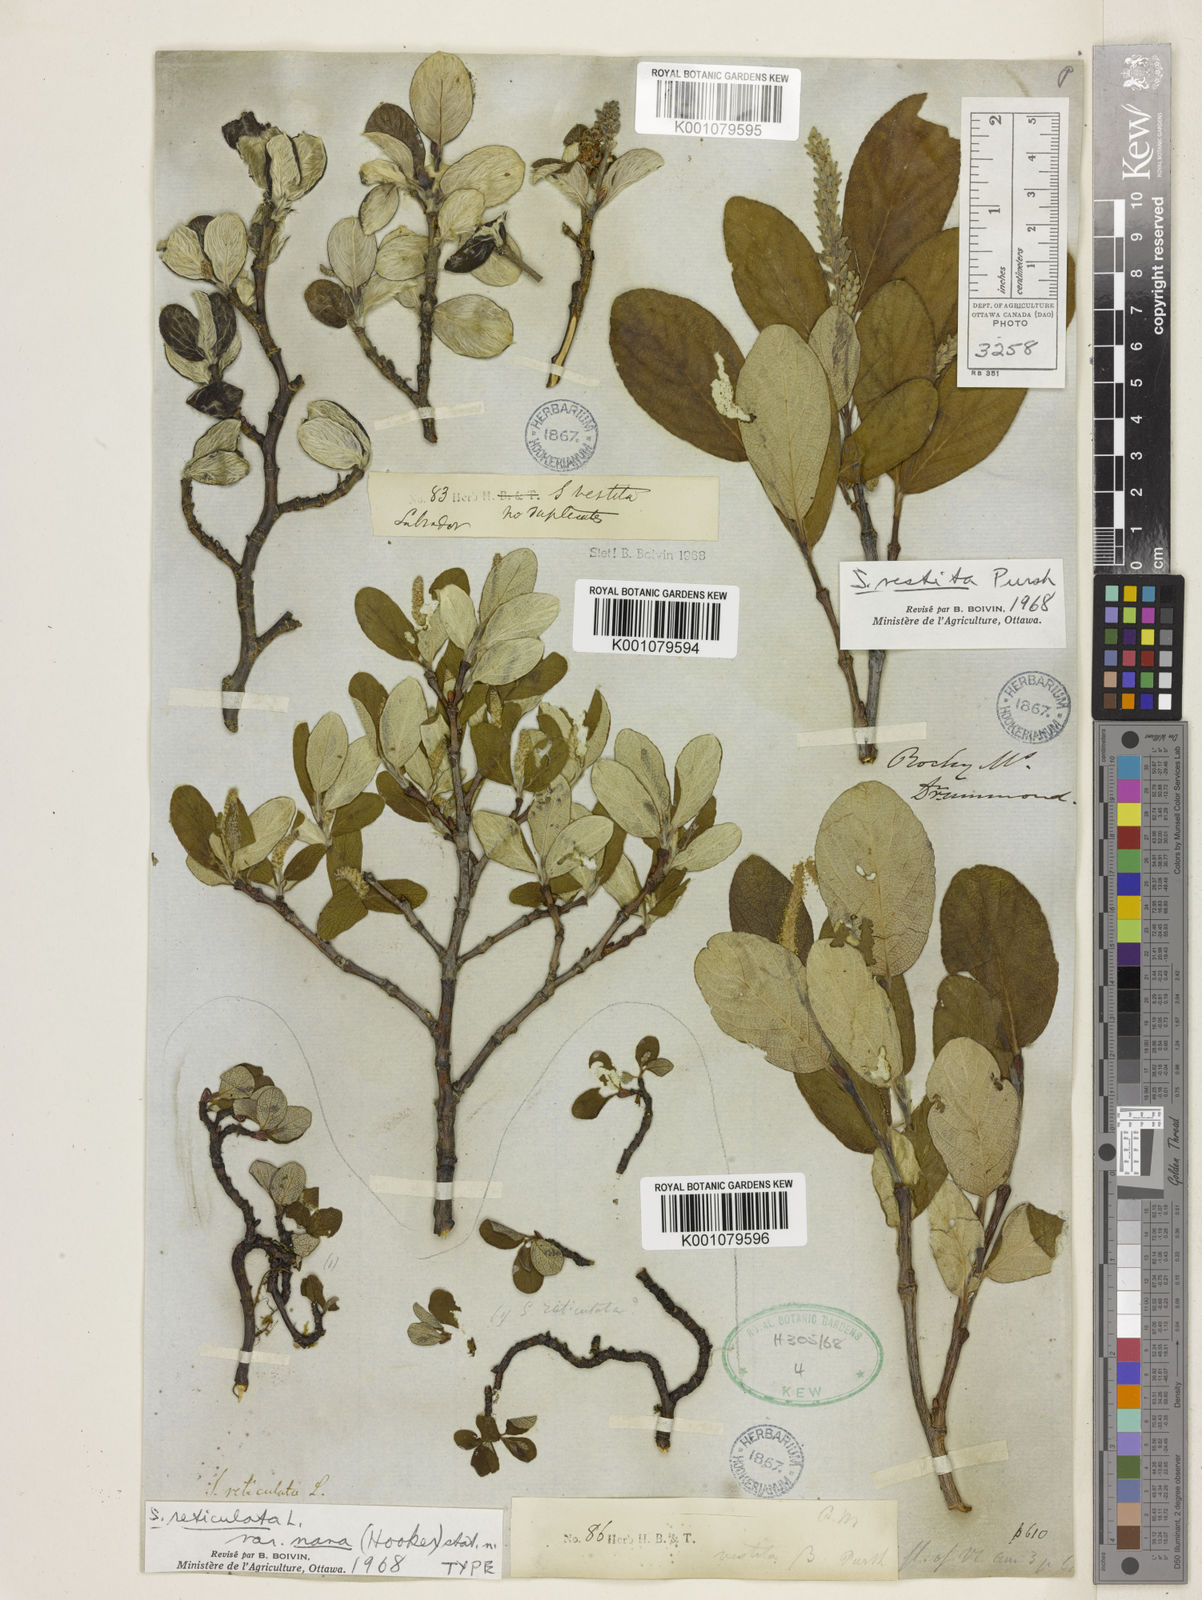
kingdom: Plantae
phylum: Tracheophyta
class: Magnoliopsida
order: Malpighiales
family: Salicaceae
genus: Salix
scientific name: Salix vestita
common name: Hairy willow
